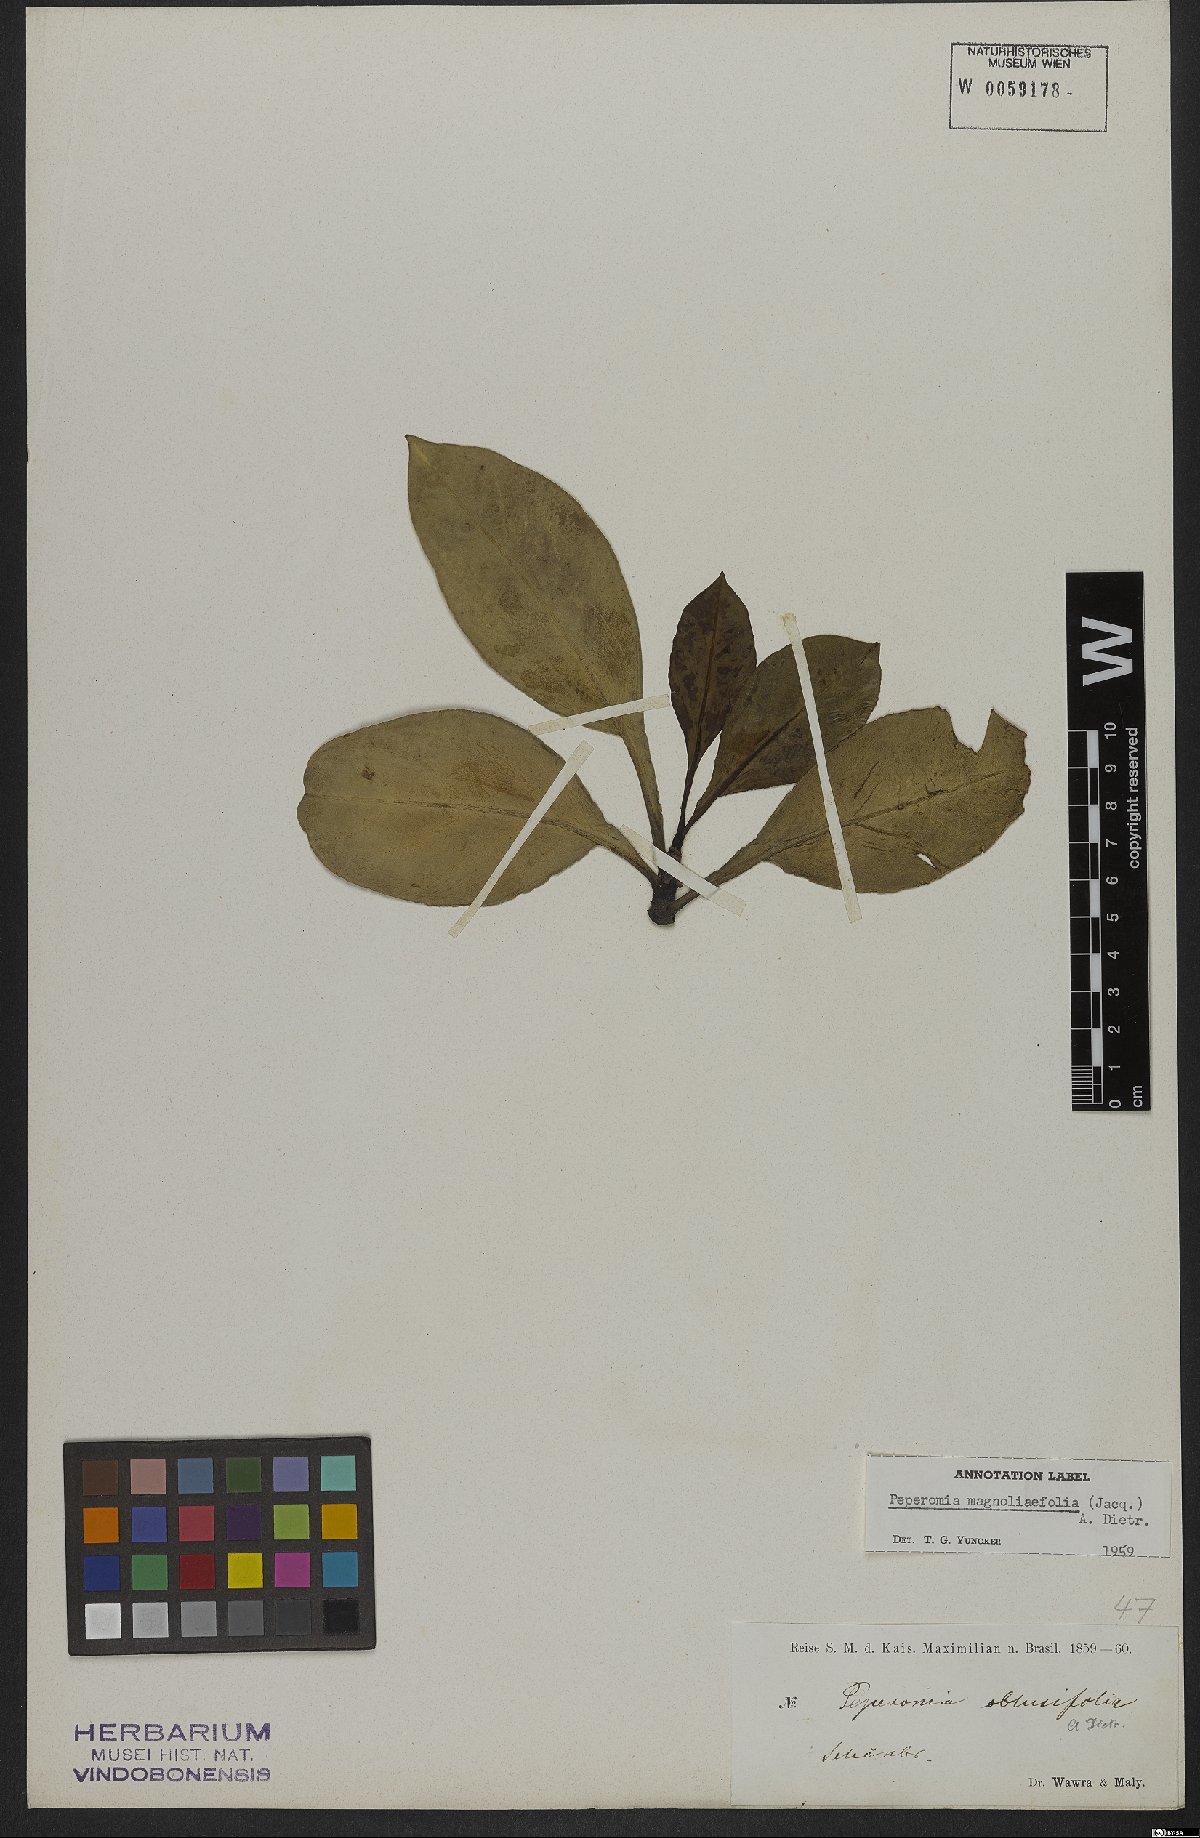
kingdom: Plantae
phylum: Tracheophyta
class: Magnoliopsida
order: Piperales
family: Piperaceae
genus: Peperomia
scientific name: Peperomia magnoliifolia
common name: Spoonleaf peperomia
